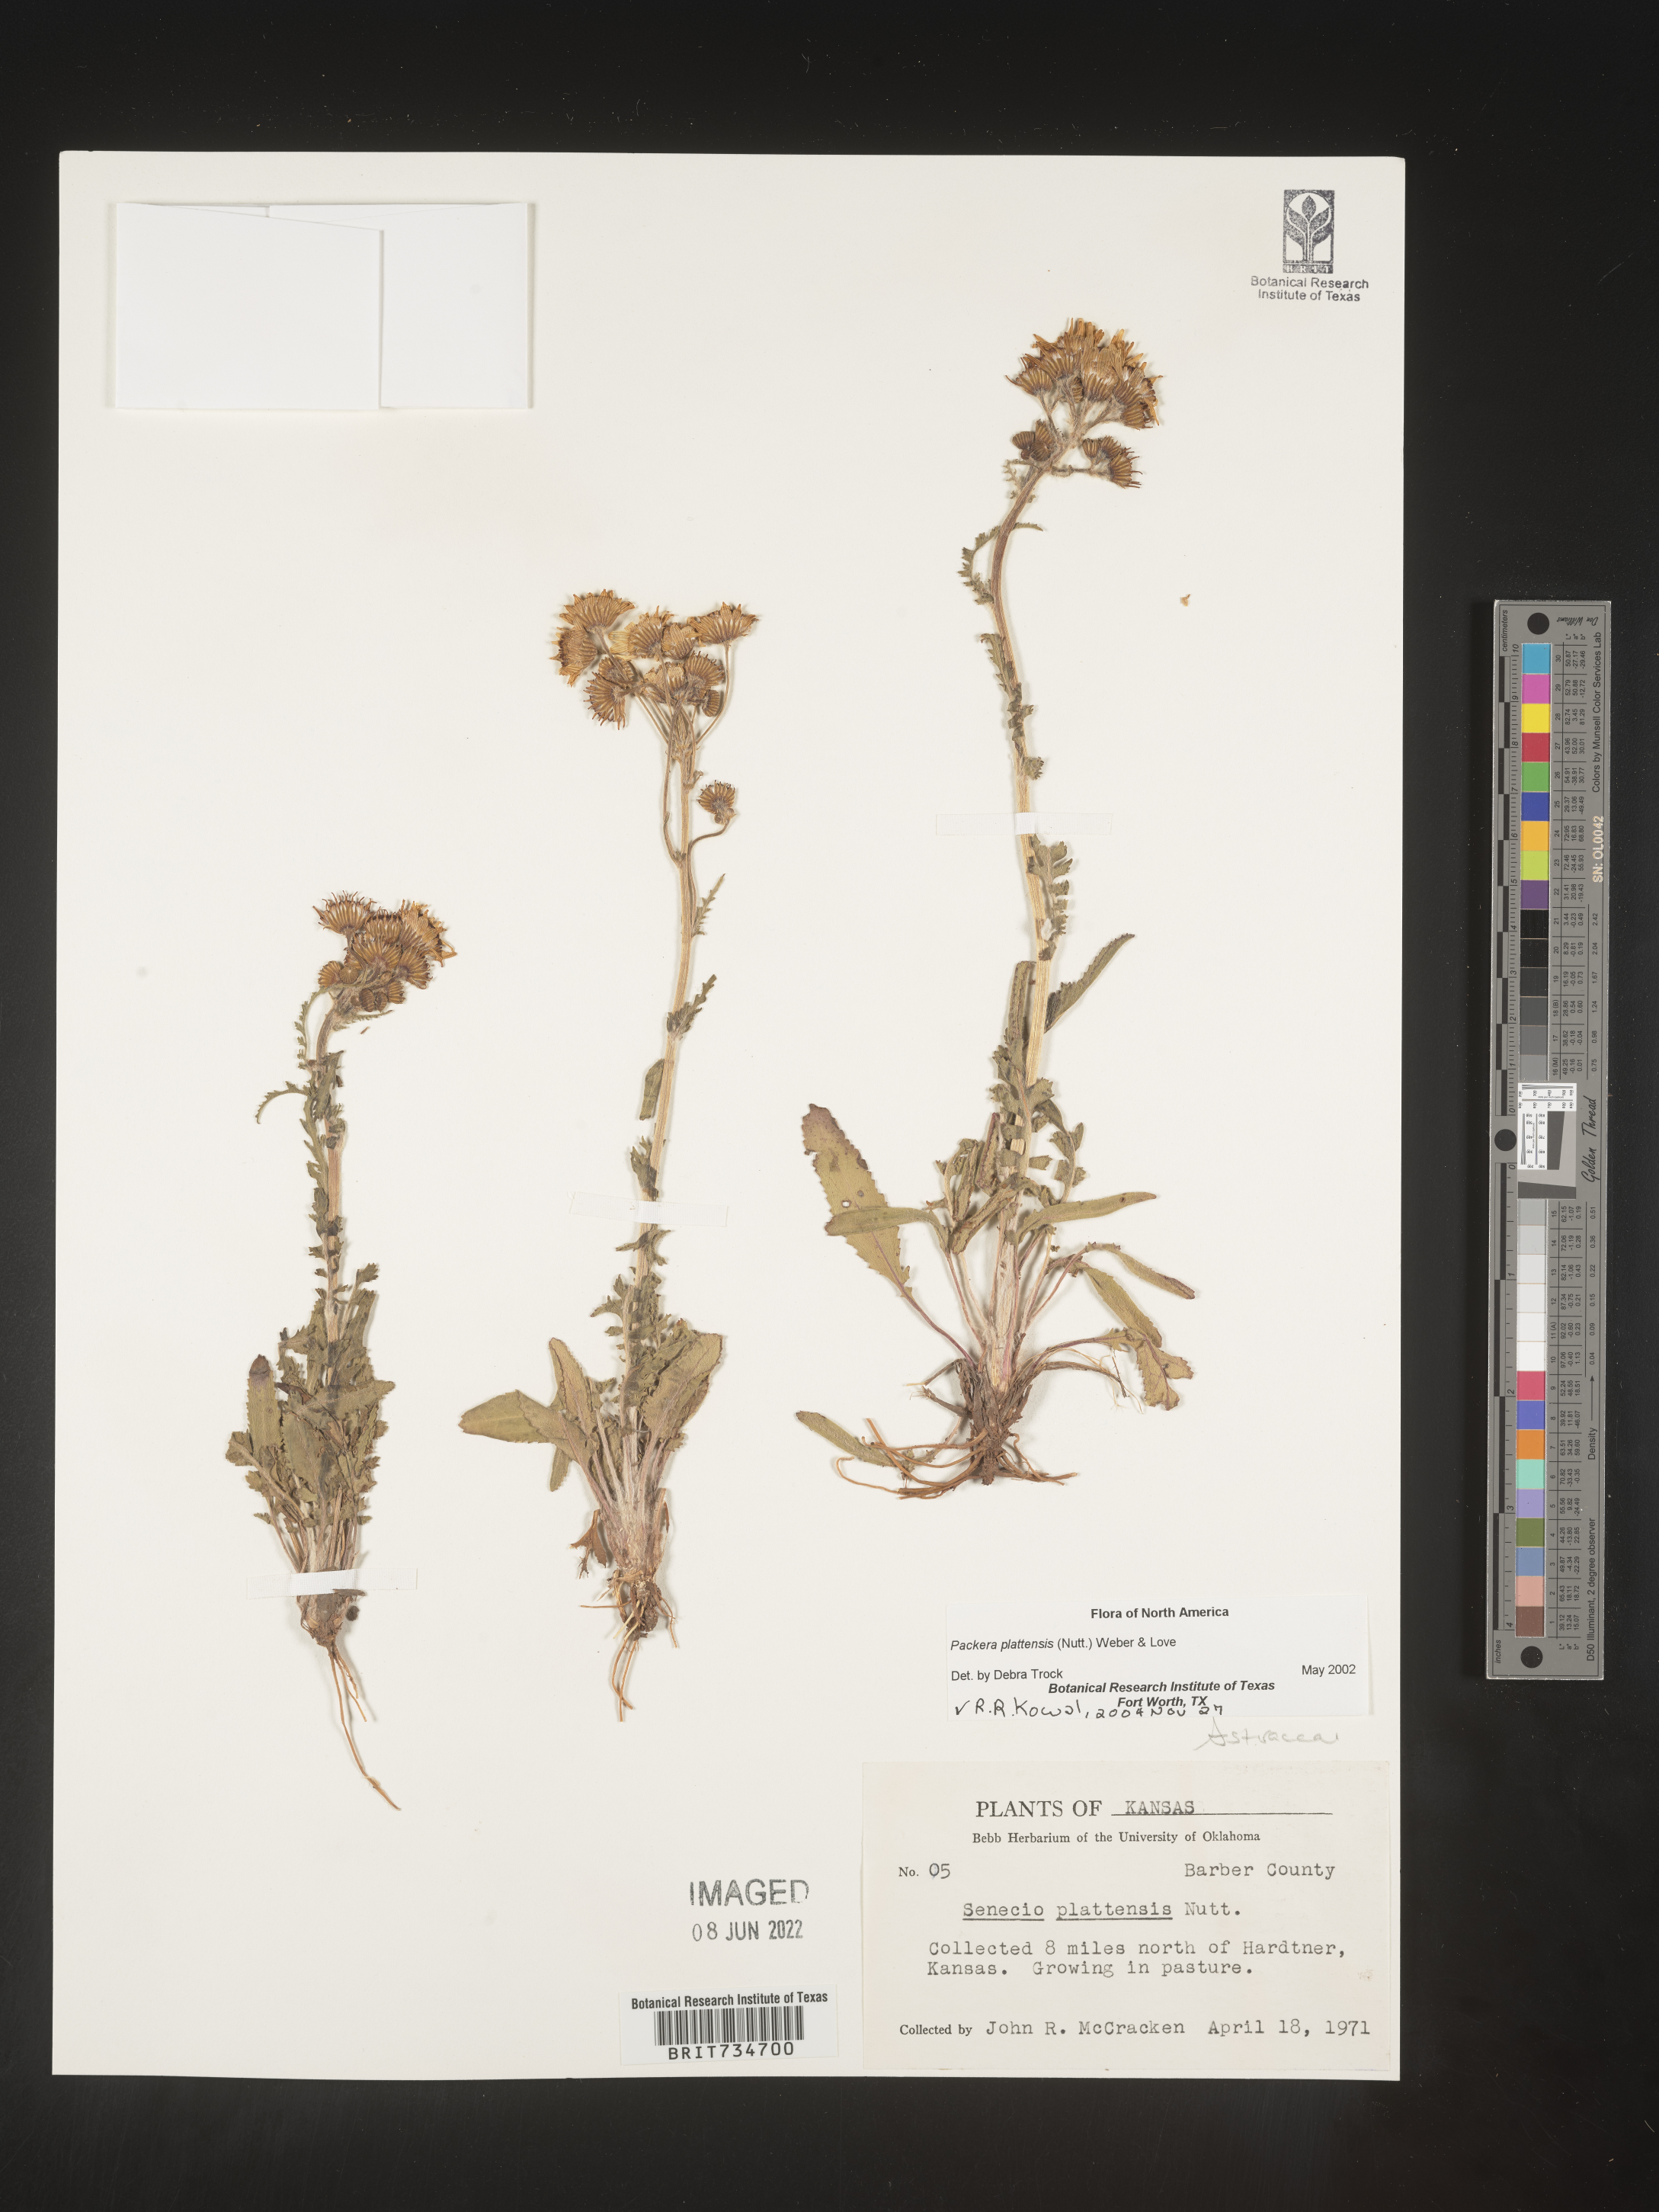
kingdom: Plantae
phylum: Tracheophyta
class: Magnoliopsida
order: Asterales
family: Asteraceae
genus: Packera
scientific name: Packera plattensis
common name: Prairie groundsel
